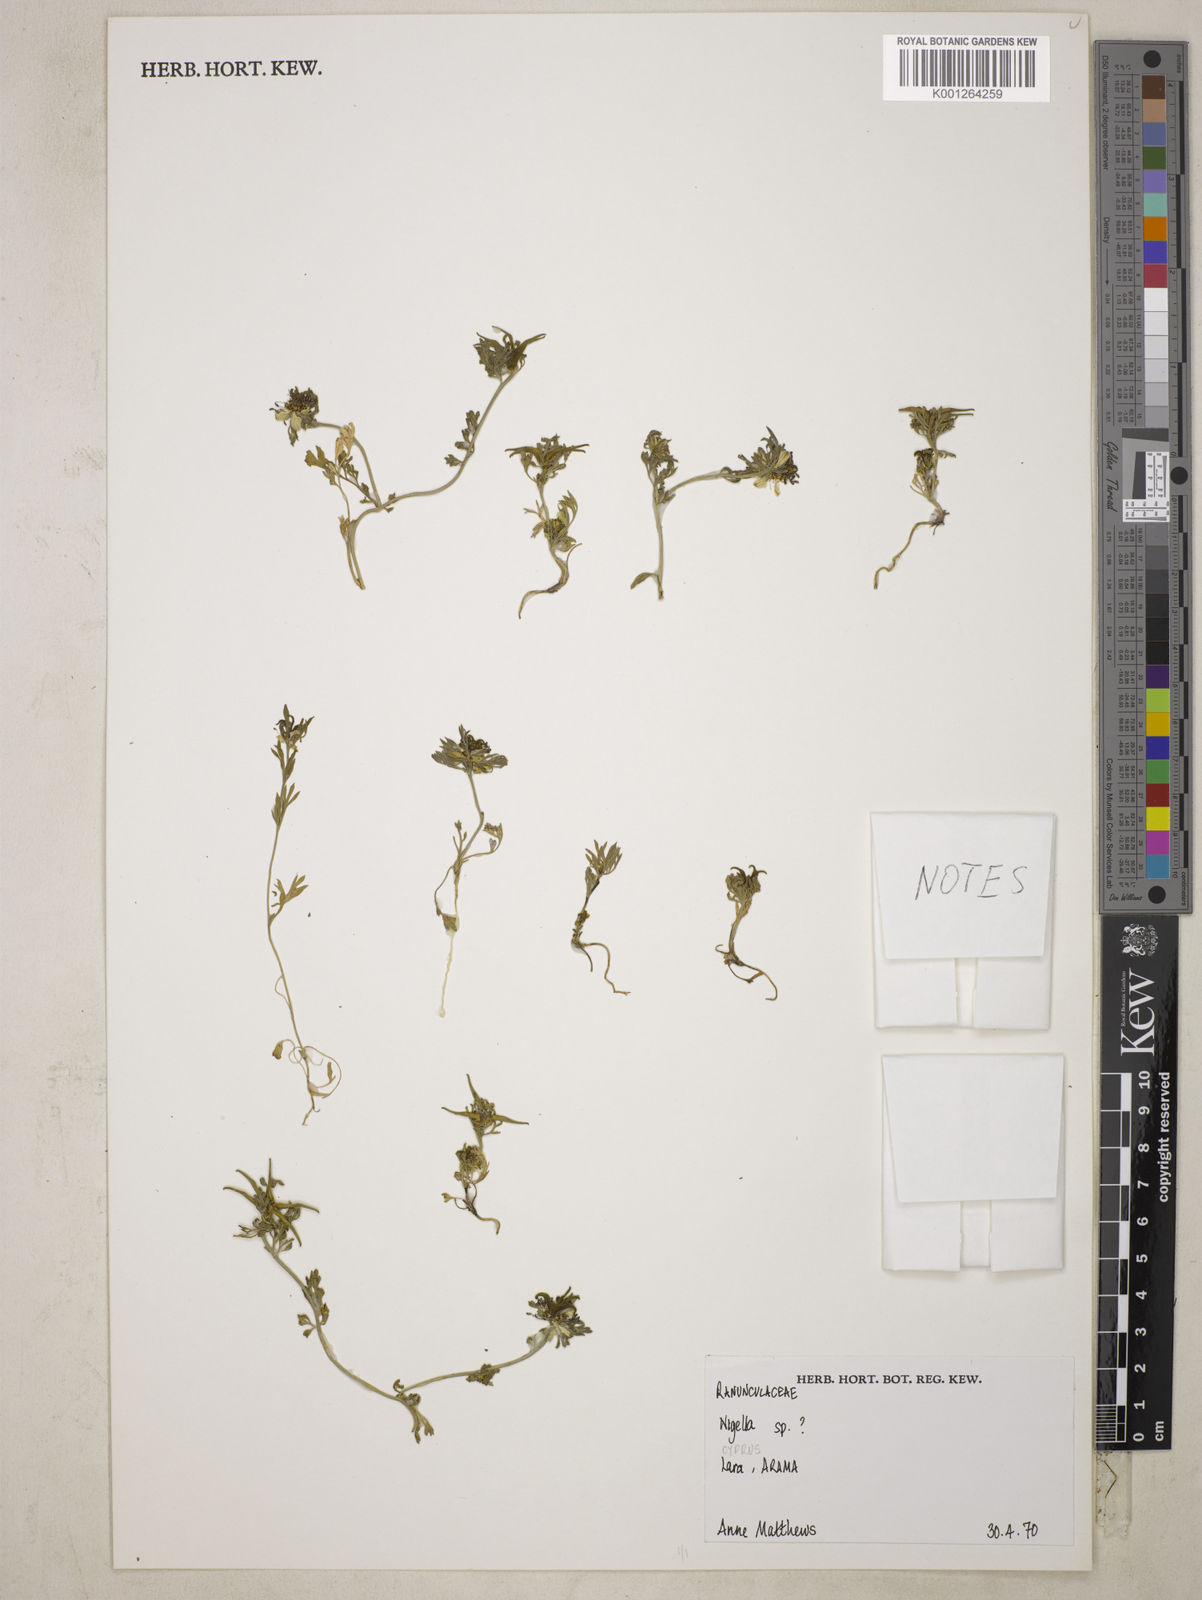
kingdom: Plantae
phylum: Tracheophyta
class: Magnoliopsida
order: Ranunculales
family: Ranunculaceae
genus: Nigella
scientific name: Nigella
